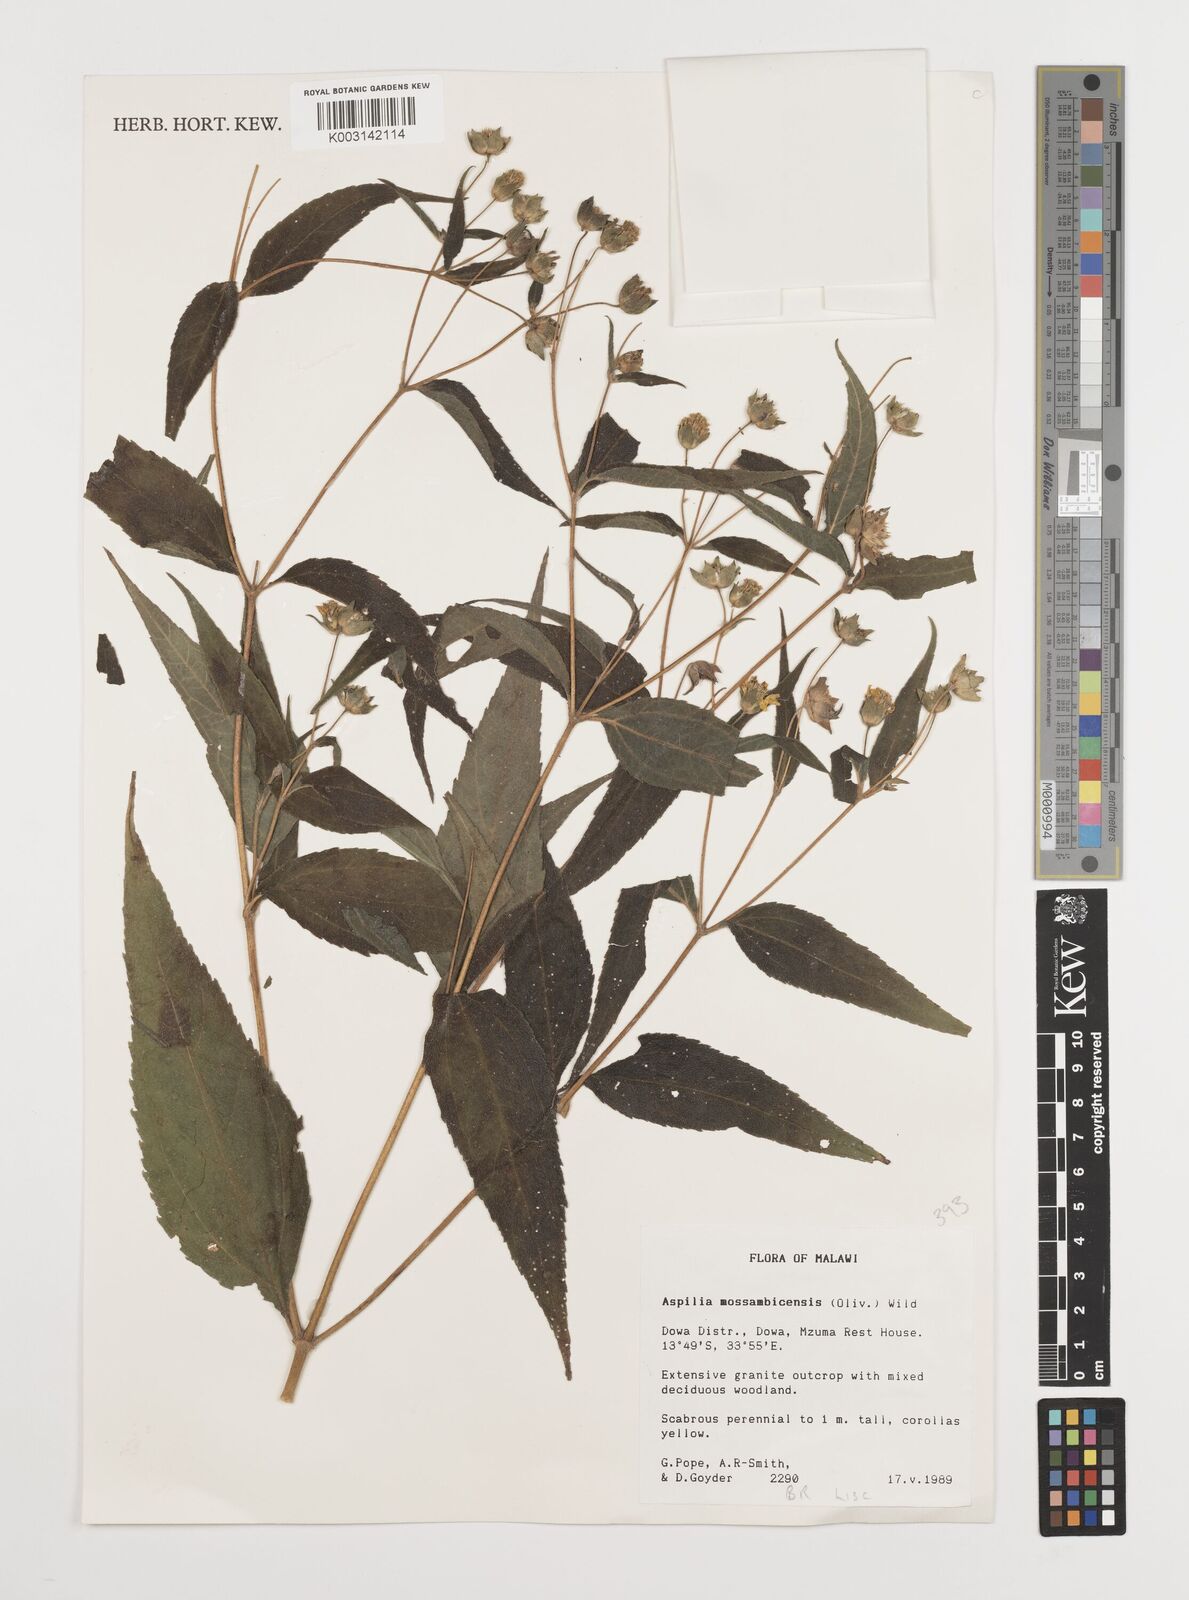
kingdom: Plantae
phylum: Tracheophyta
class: Magnoliopsida
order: Asterales
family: Asteraceae
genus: Aspilia
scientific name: Aspilia mossambicensis
